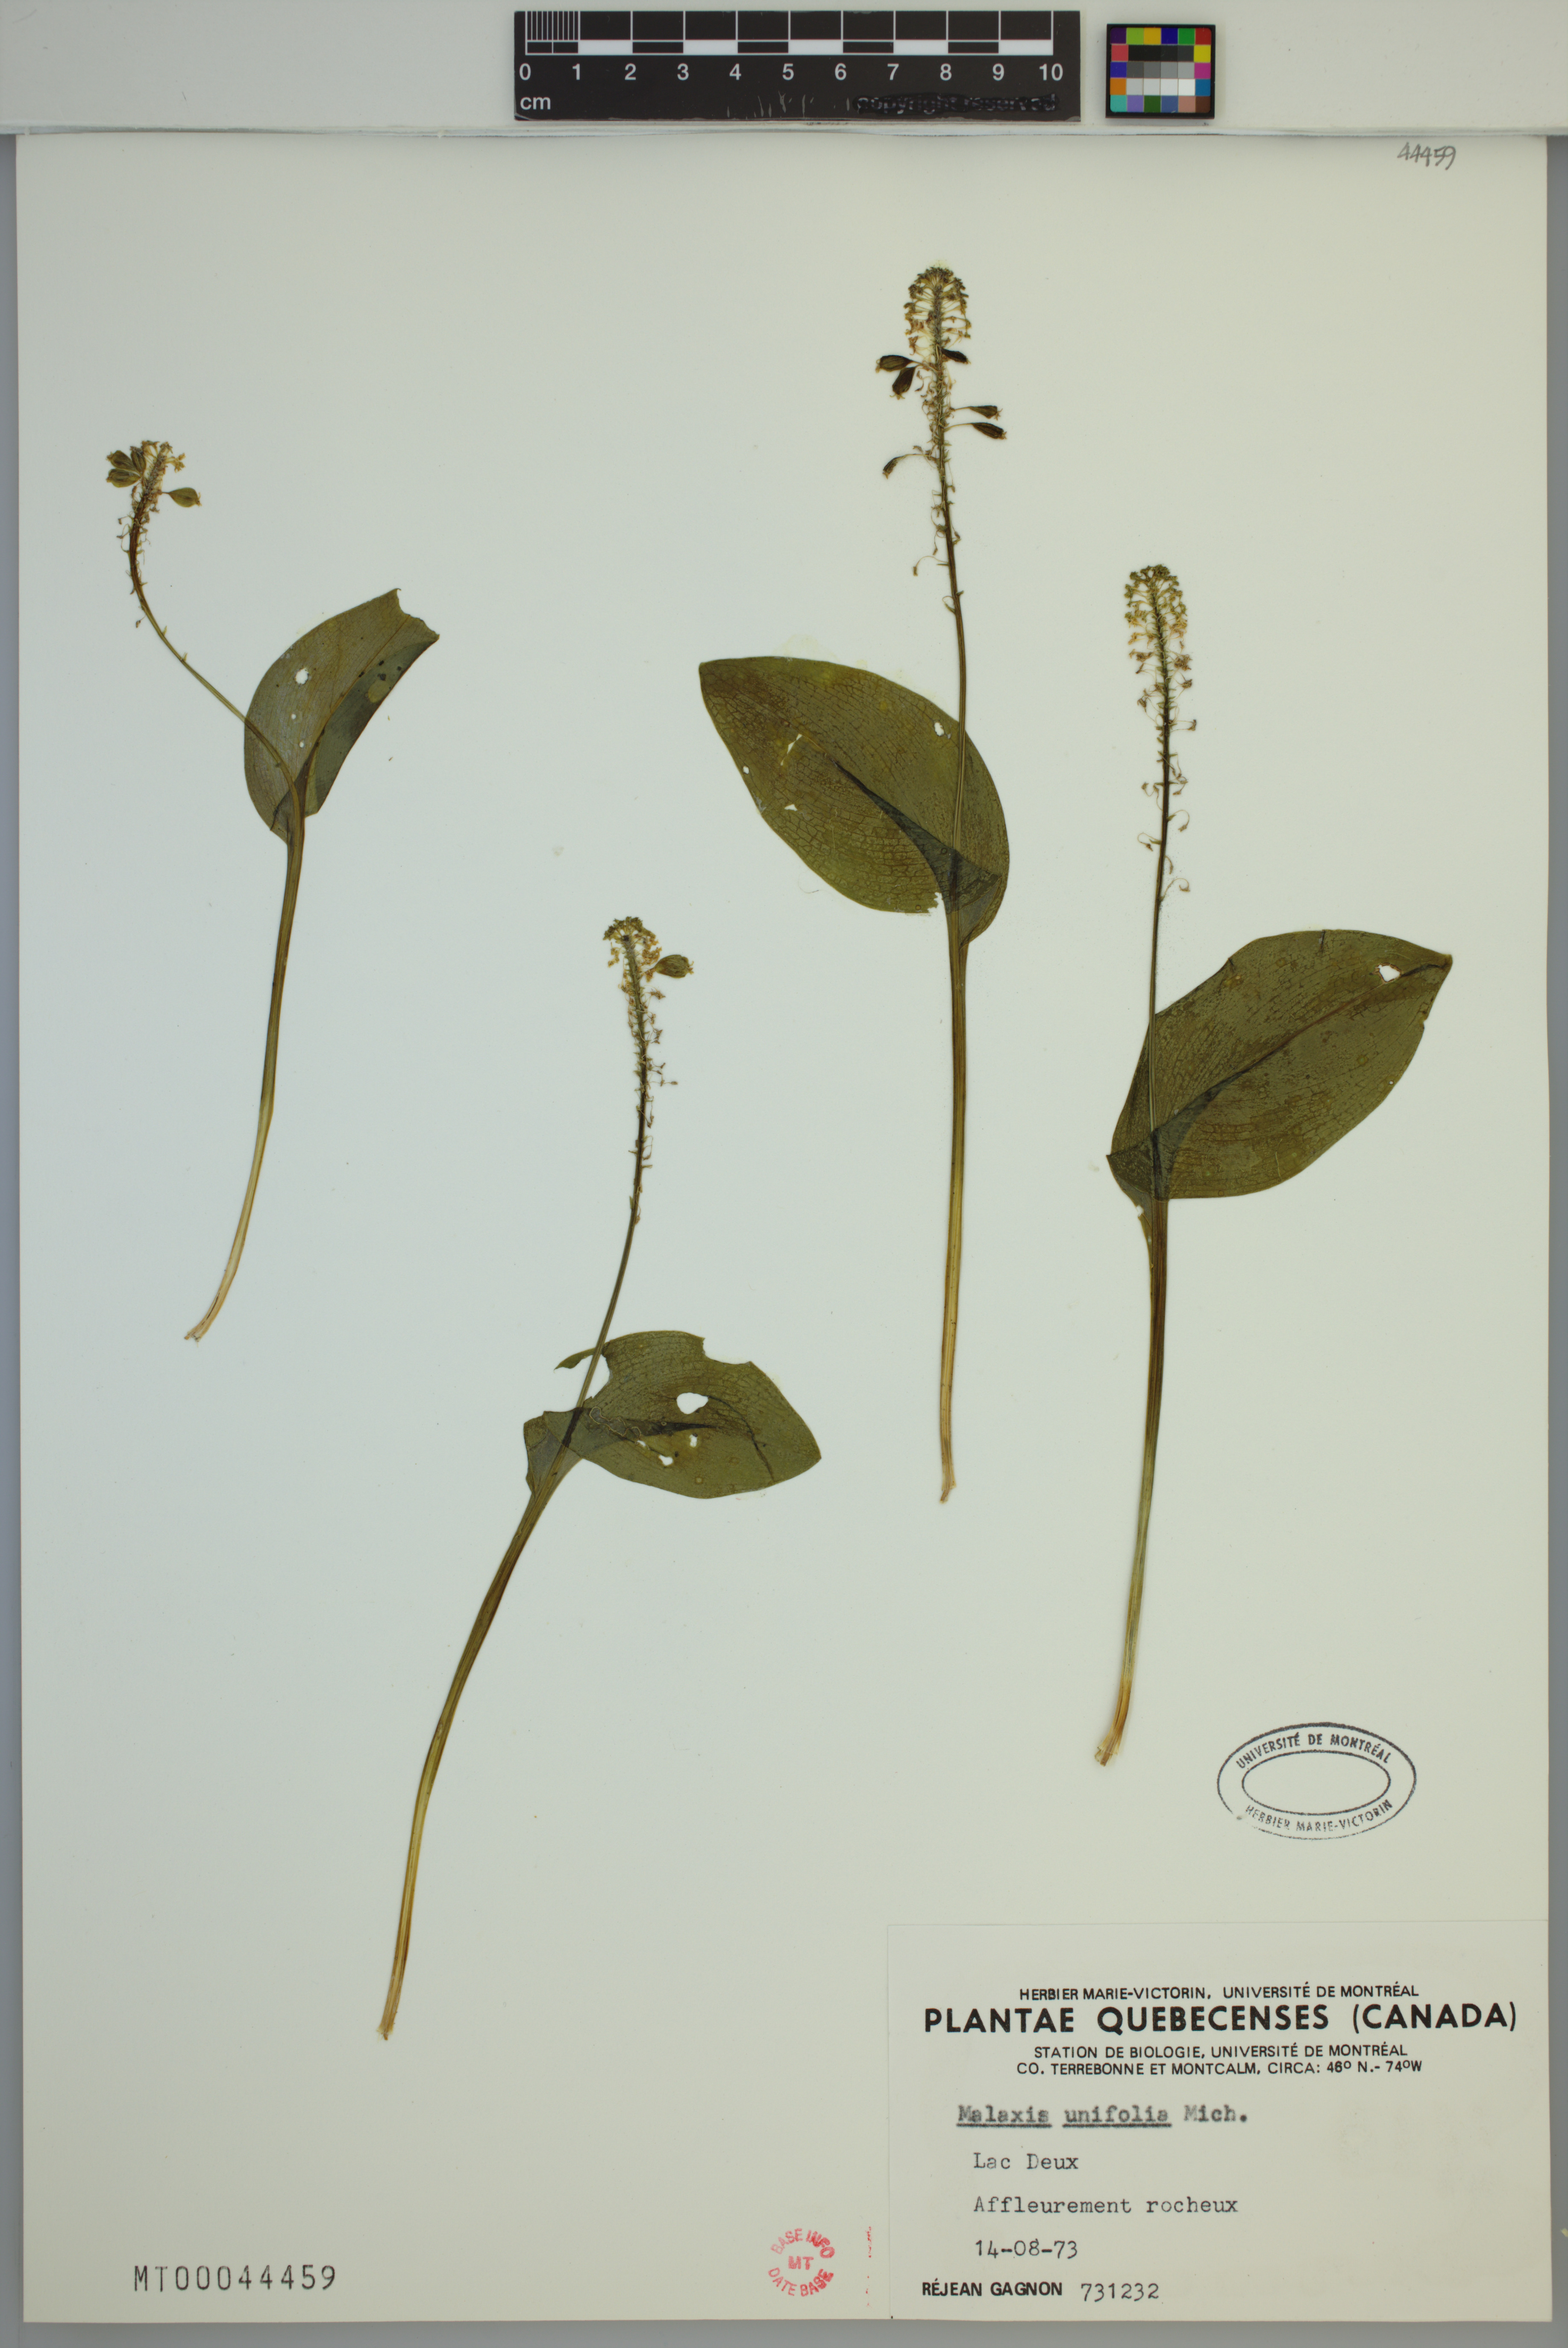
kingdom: Plantae
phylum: Tracheophyta
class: Liliopsida
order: Asparagales
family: Orchidaceae
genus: Malaxis
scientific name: Malaxis unifolia
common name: Green adder's-mouth
